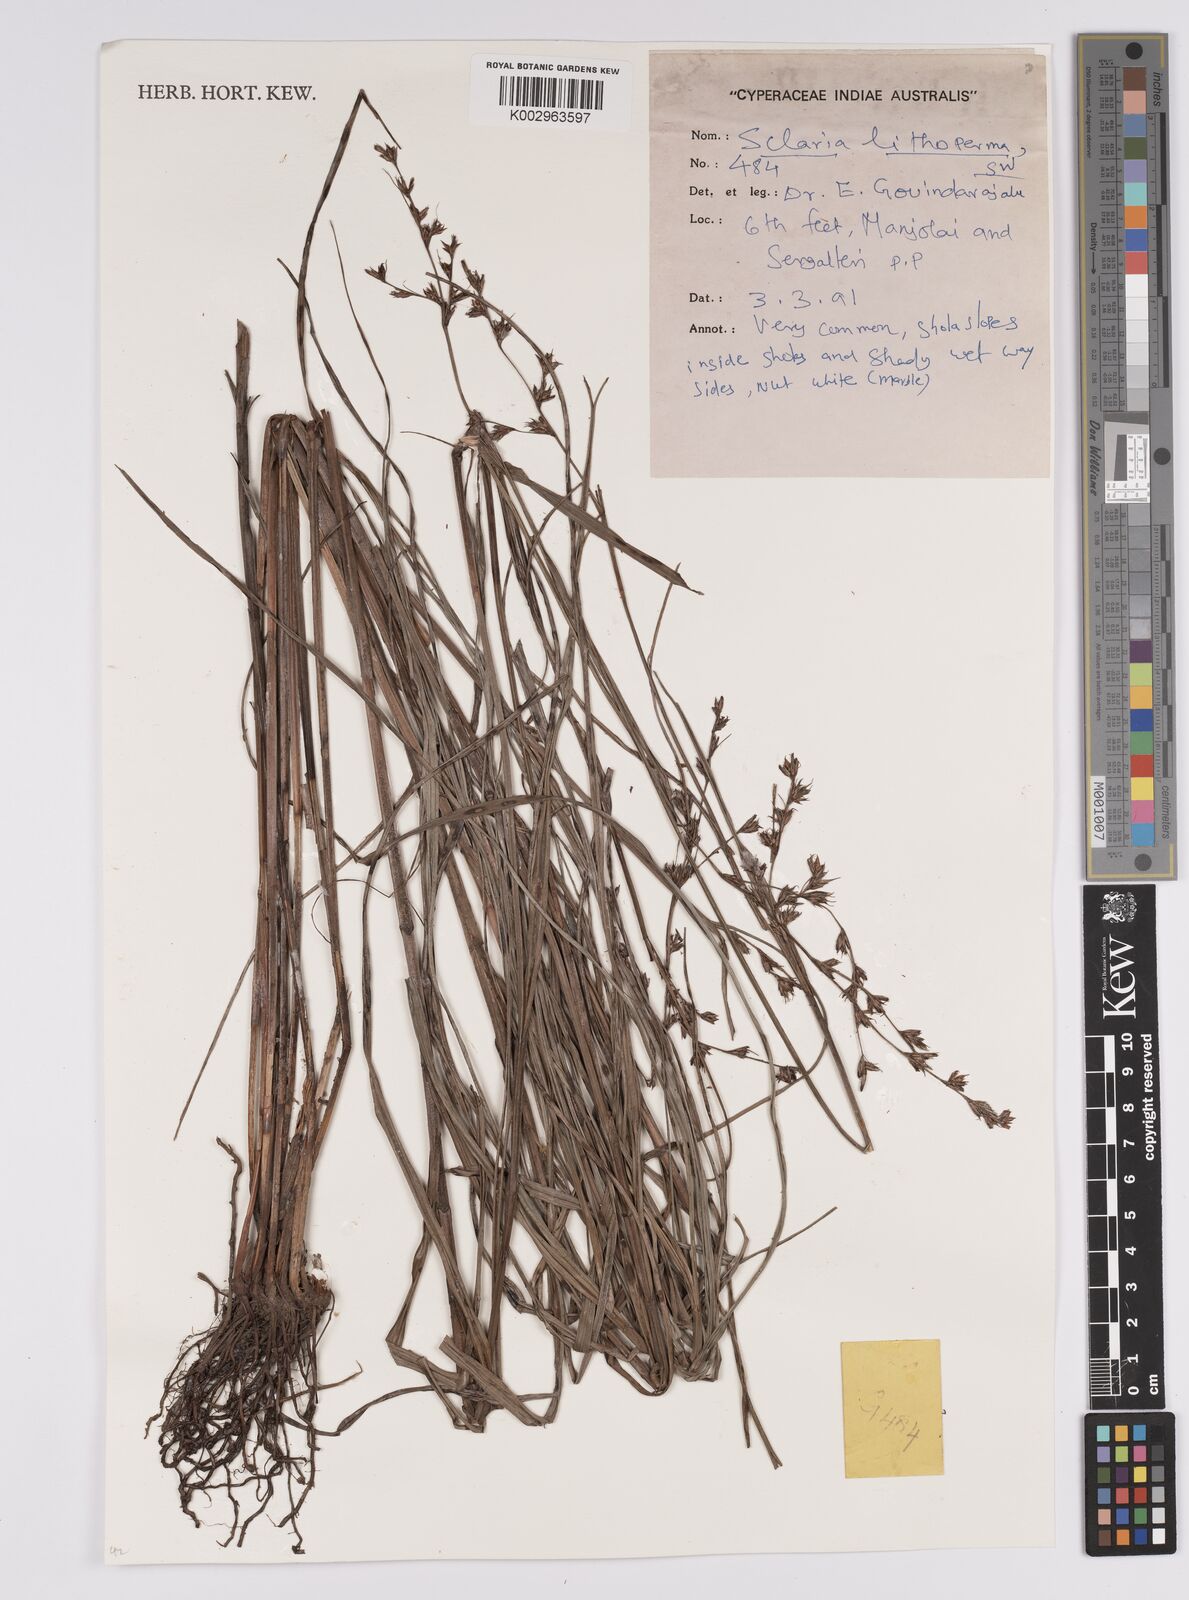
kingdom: Plantae
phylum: Tracheophyta
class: Liliopsida
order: Poales
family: Cyperaceae
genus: Scleria
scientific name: Scleria lithosperma
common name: Florida keys nut-rush
